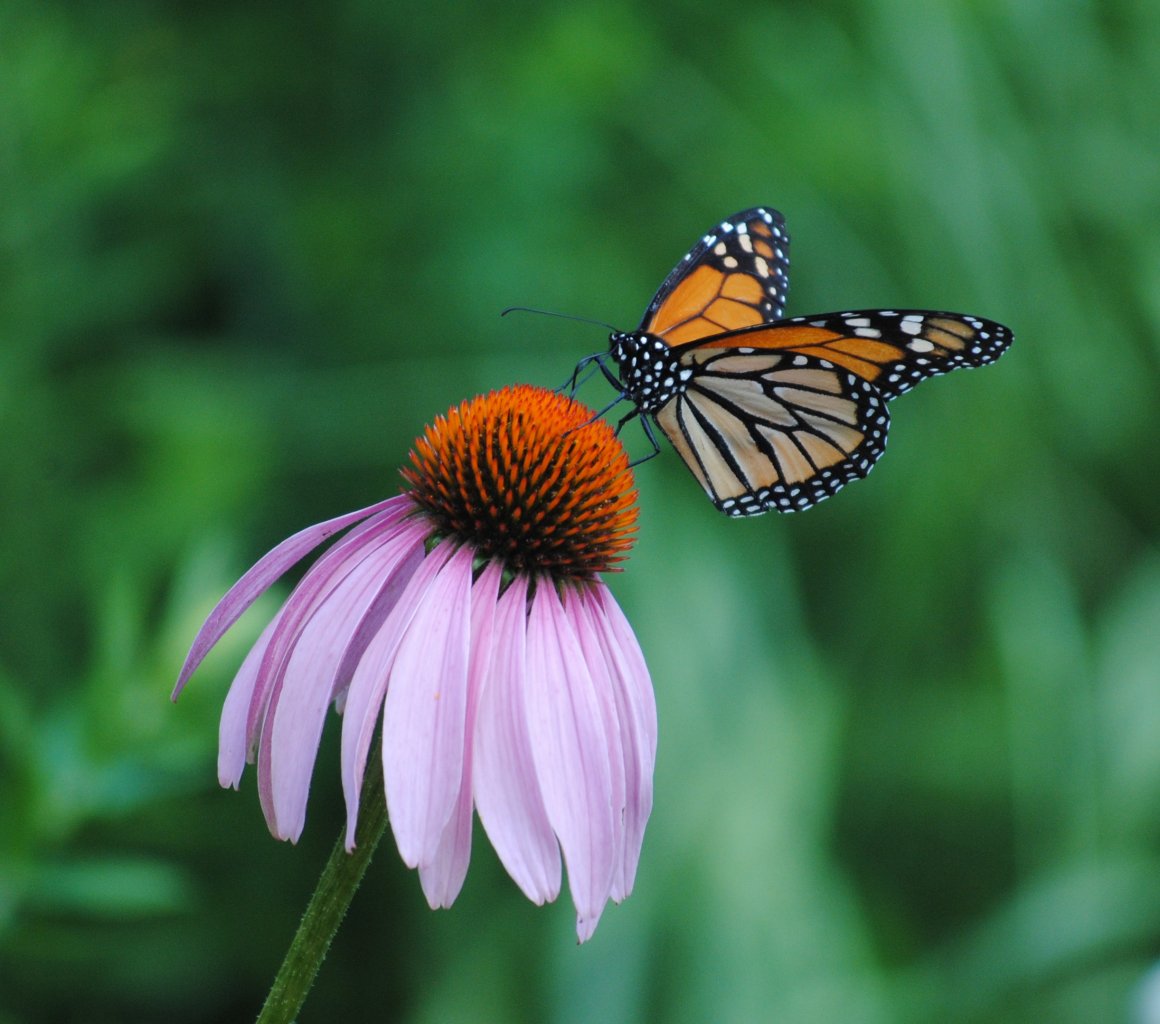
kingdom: Animalia
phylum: Arthropoda
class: Insecta
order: Lepidoptera
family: Nymphalidae
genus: Danaus
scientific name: Danaus plexippus
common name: Monarch
